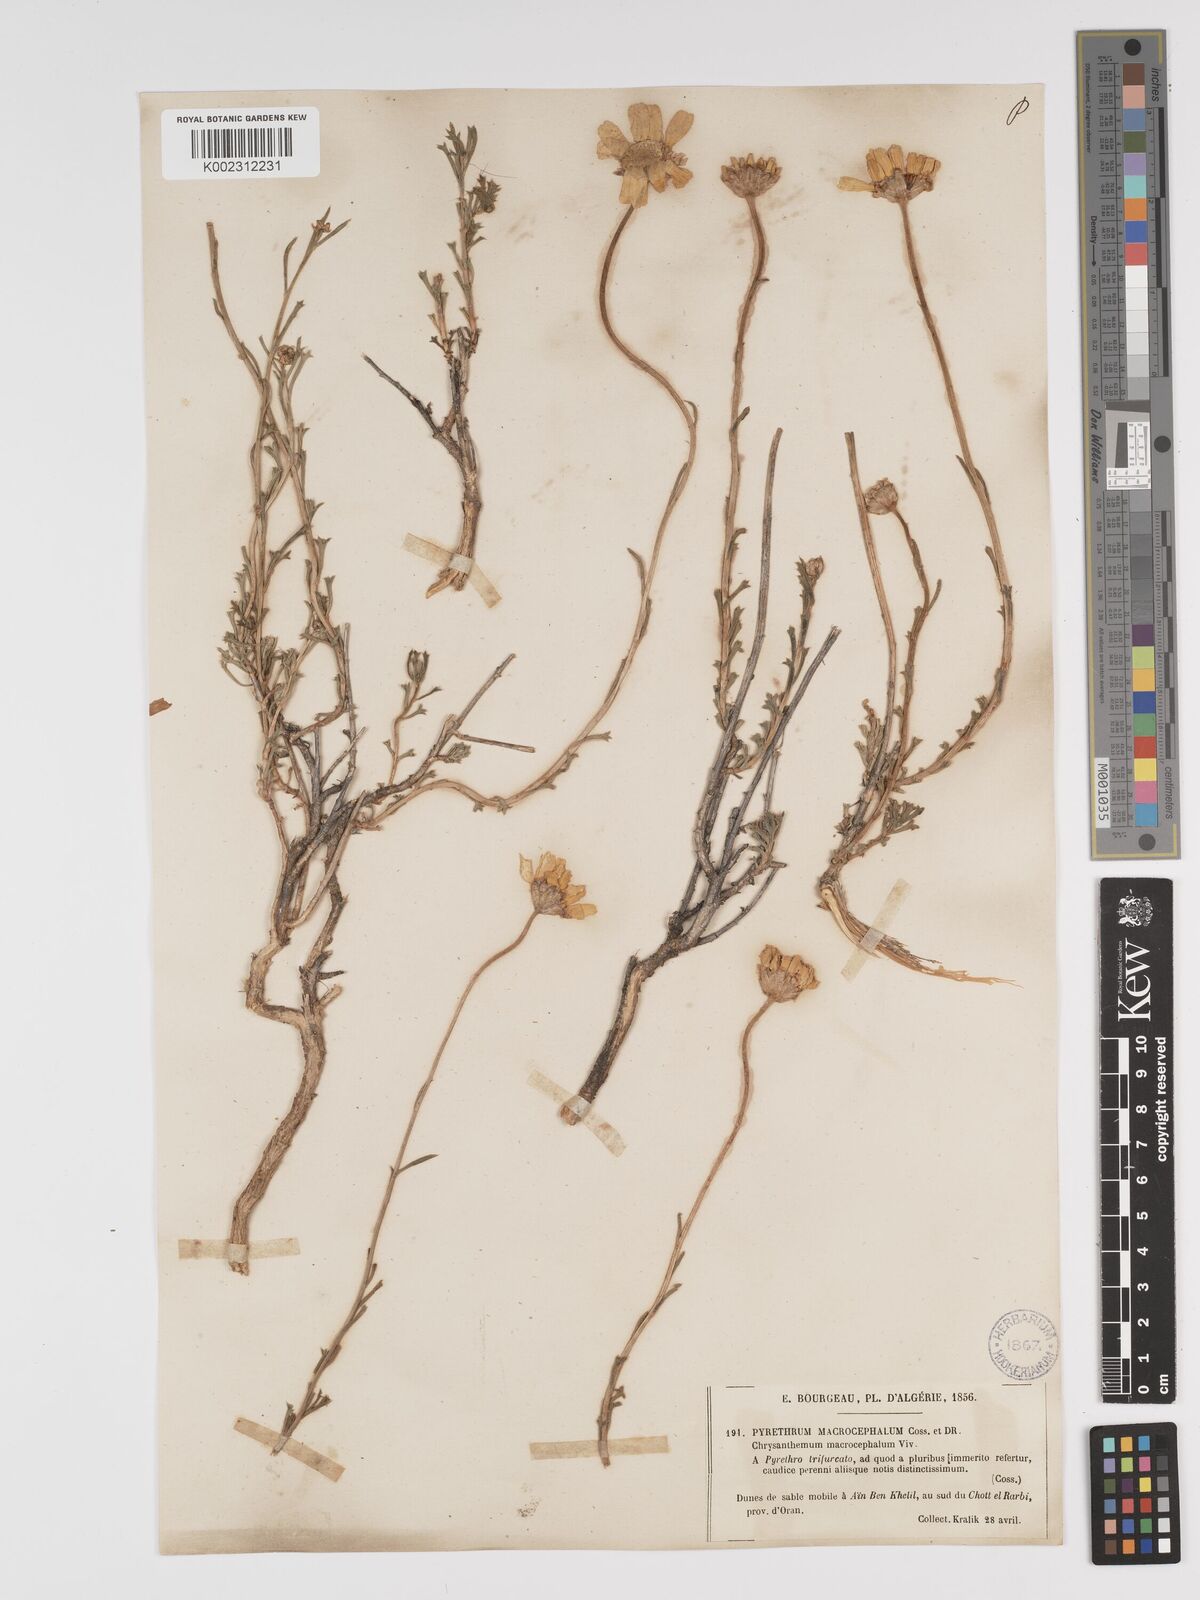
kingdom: Plantae
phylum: Tracheophyta
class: Magnoliopsida
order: Asterales
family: Asteraceae
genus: Tanacetum
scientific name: Tanacetum macrocephalum
